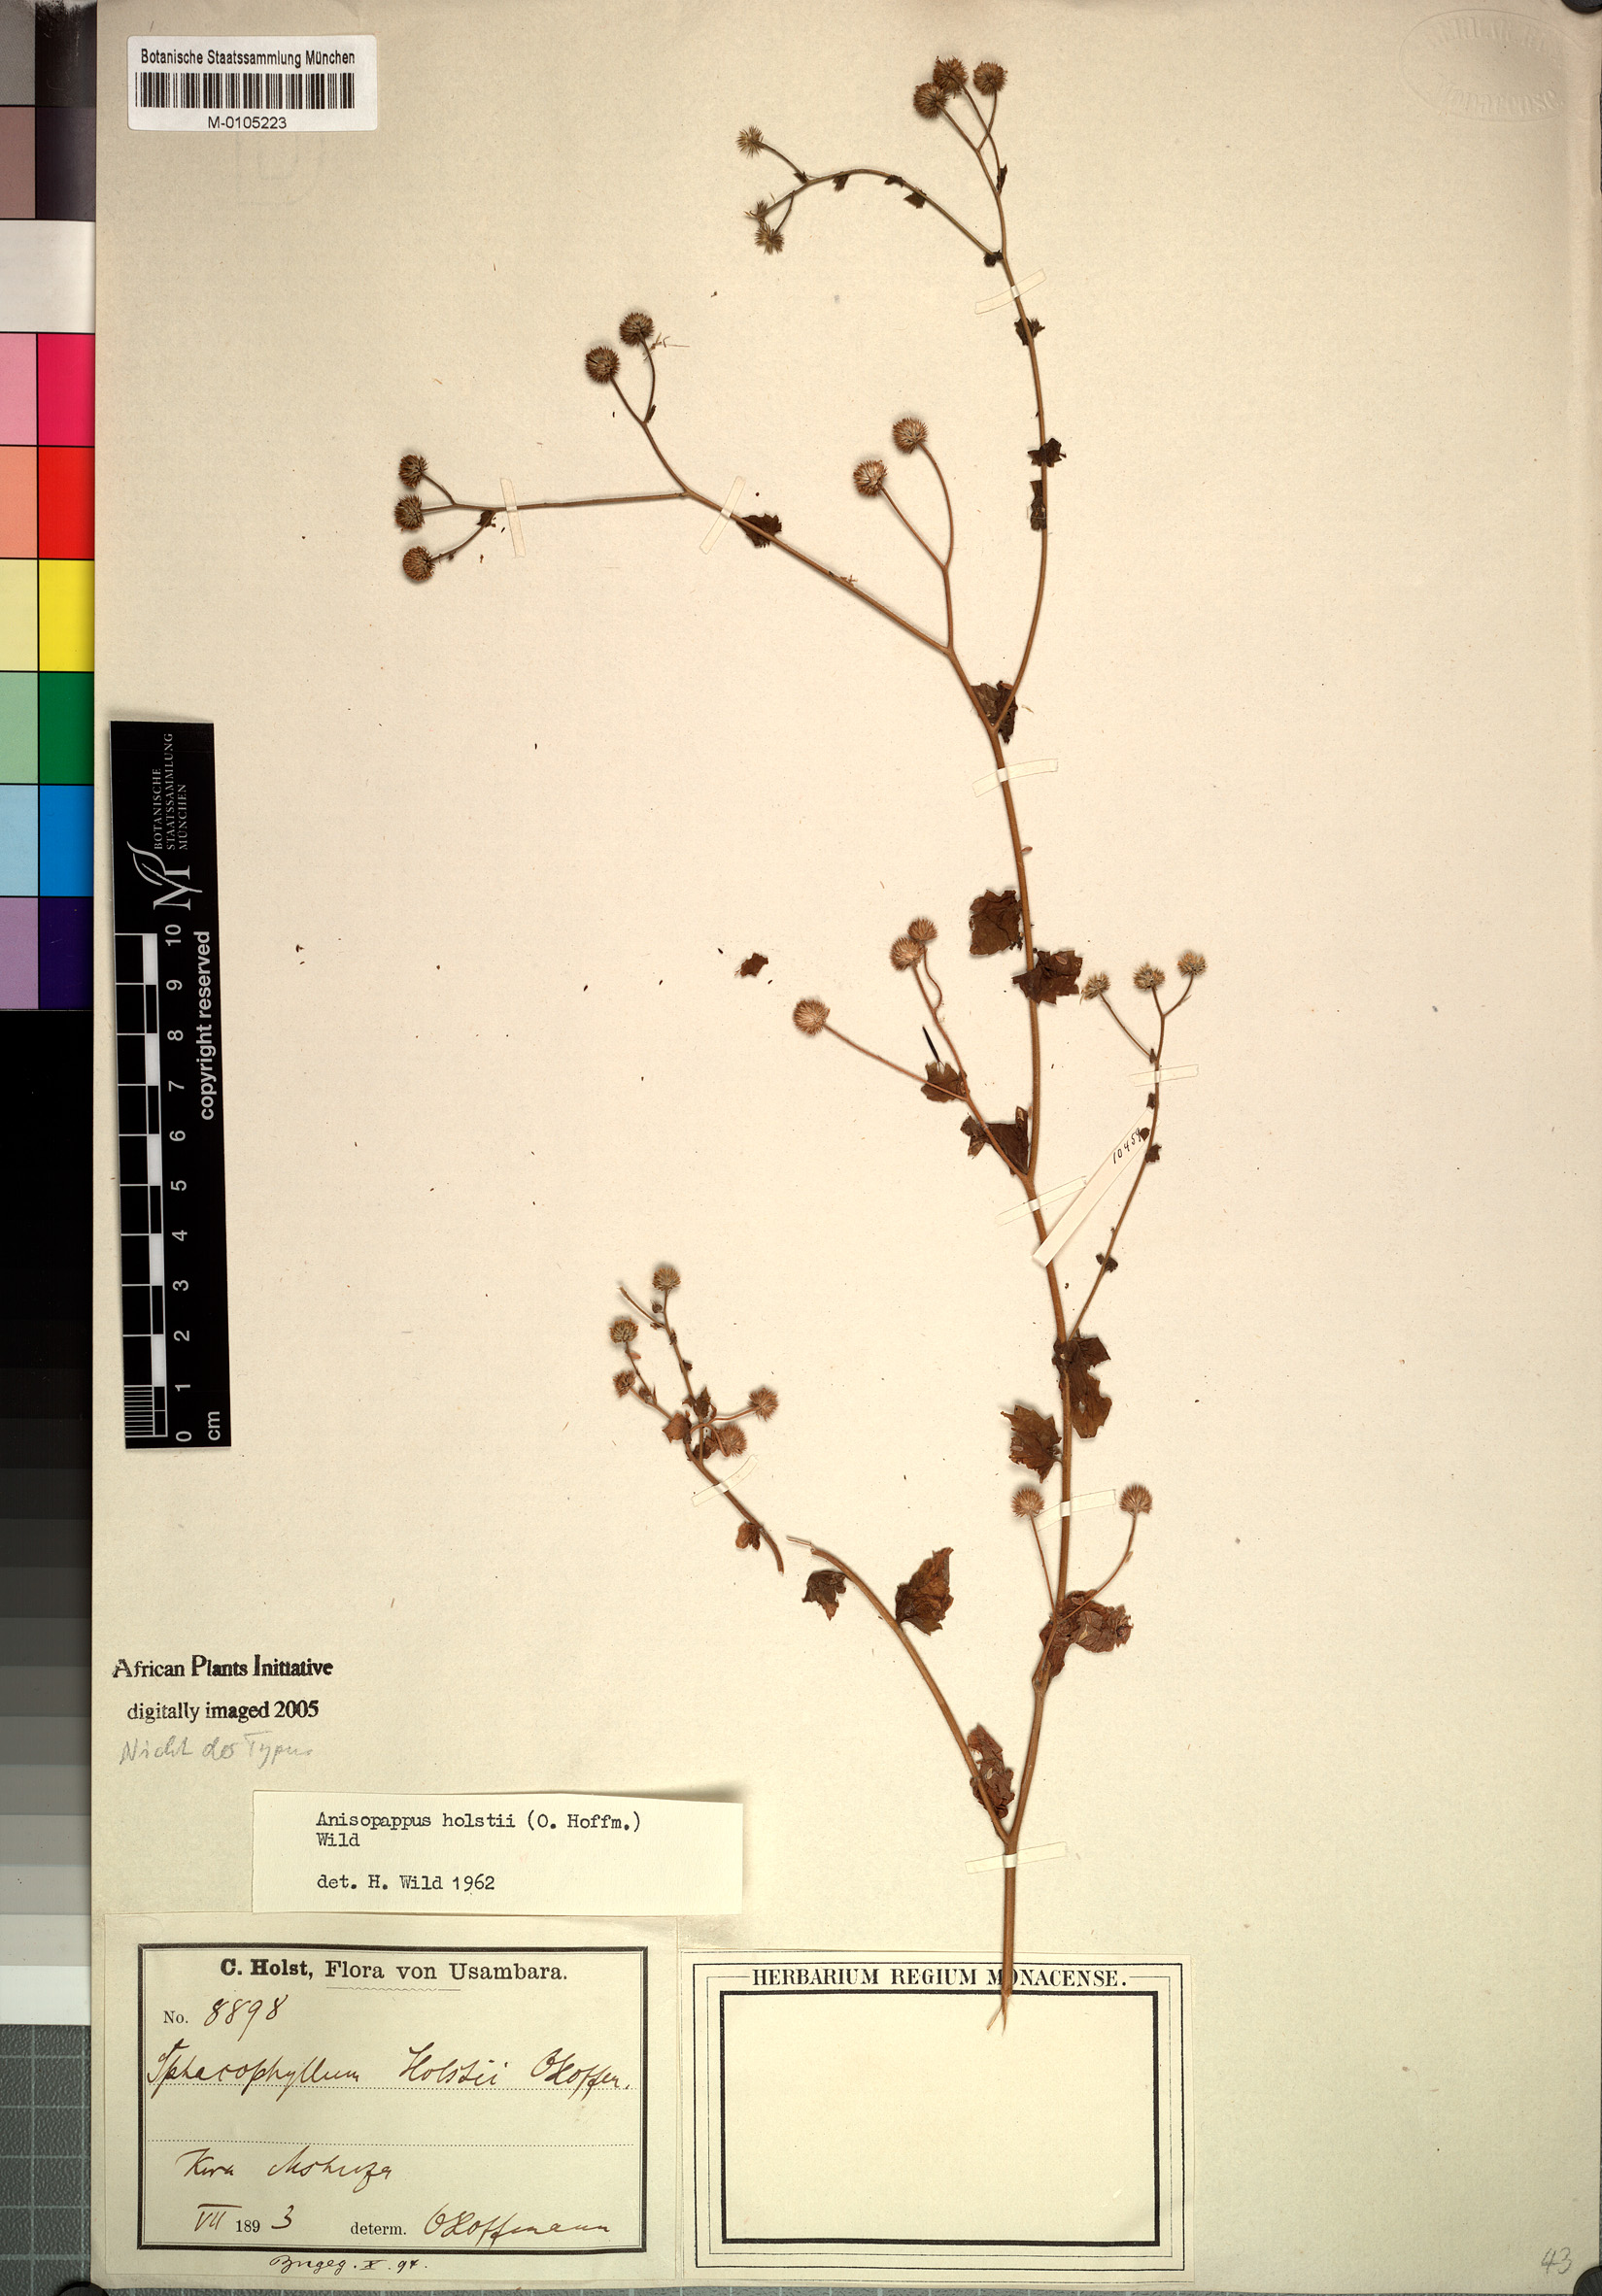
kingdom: Plantae
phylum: Tracheophyta
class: Magnoliopsida
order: Asterales
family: Asteraceae
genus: Anisopappus
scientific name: Anisopappus holstii
